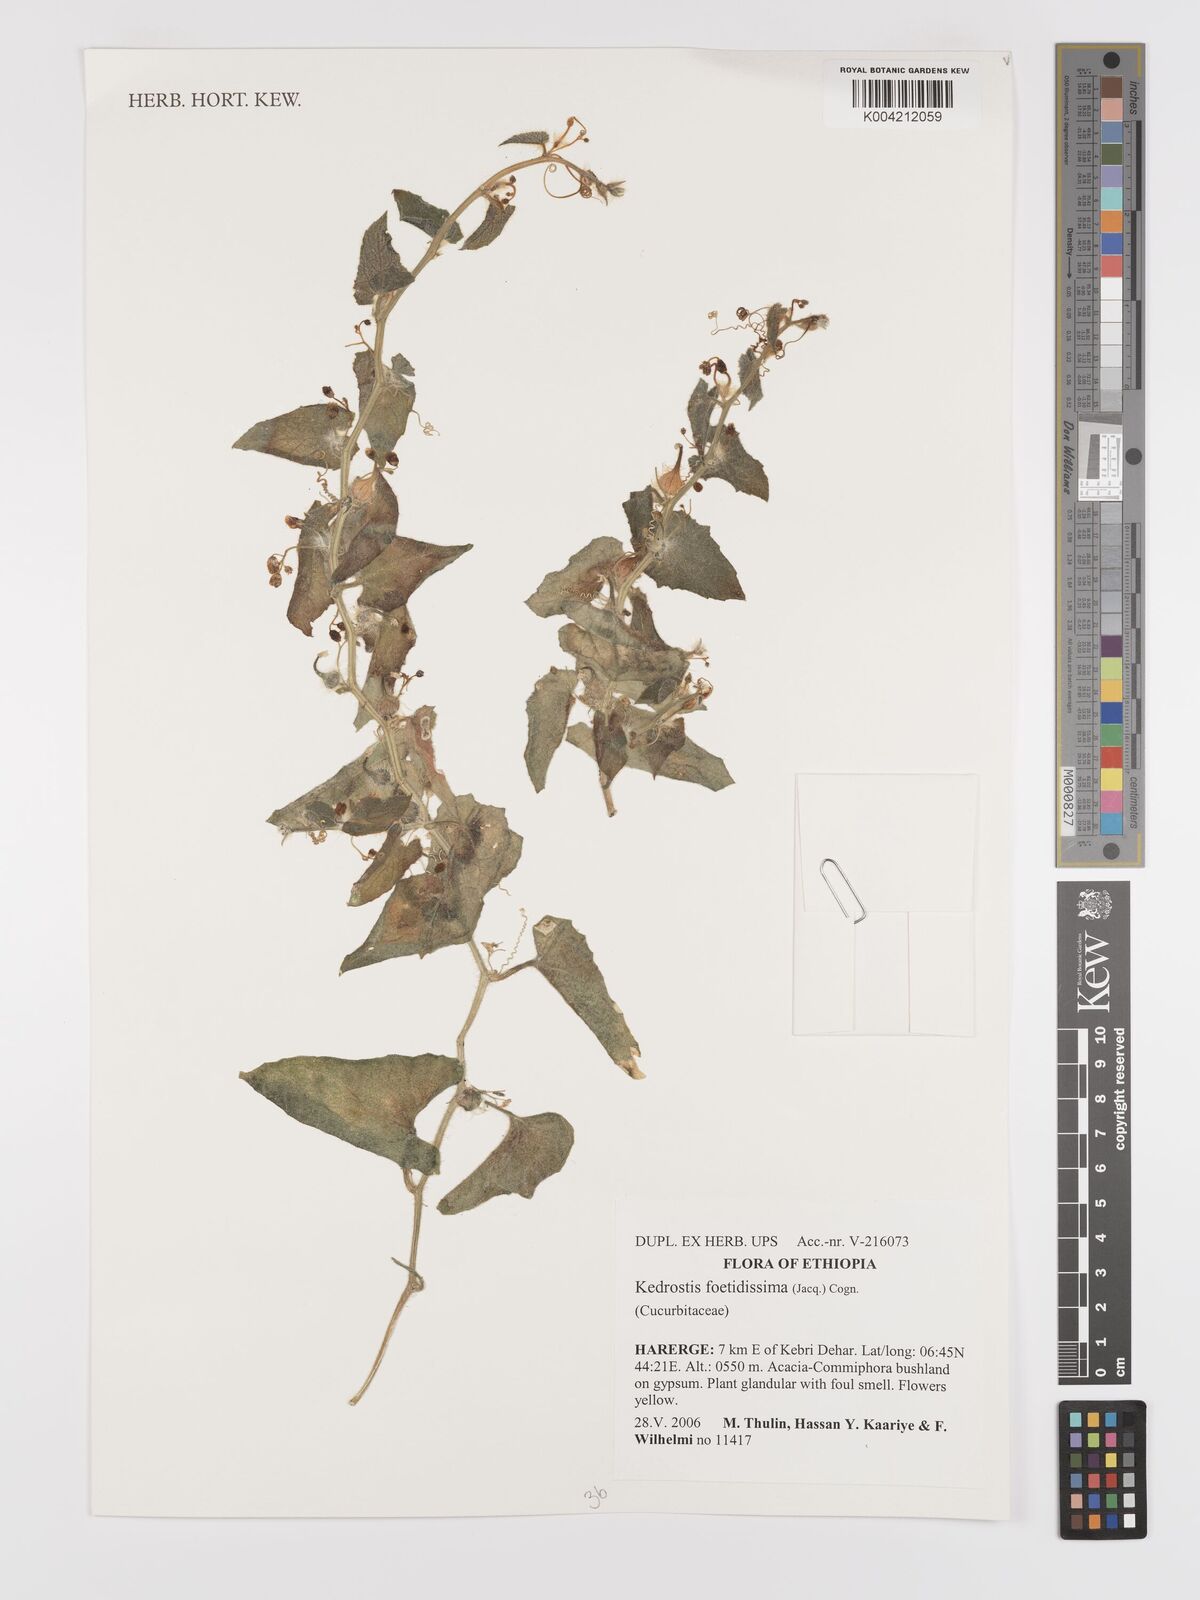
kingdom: Plantae
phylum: Tracheophyta
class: Magnoliopsida
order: Cucurbitales
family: Cucurbitaceae
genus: Kedrostis
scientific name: Kedrostis foetidissima
